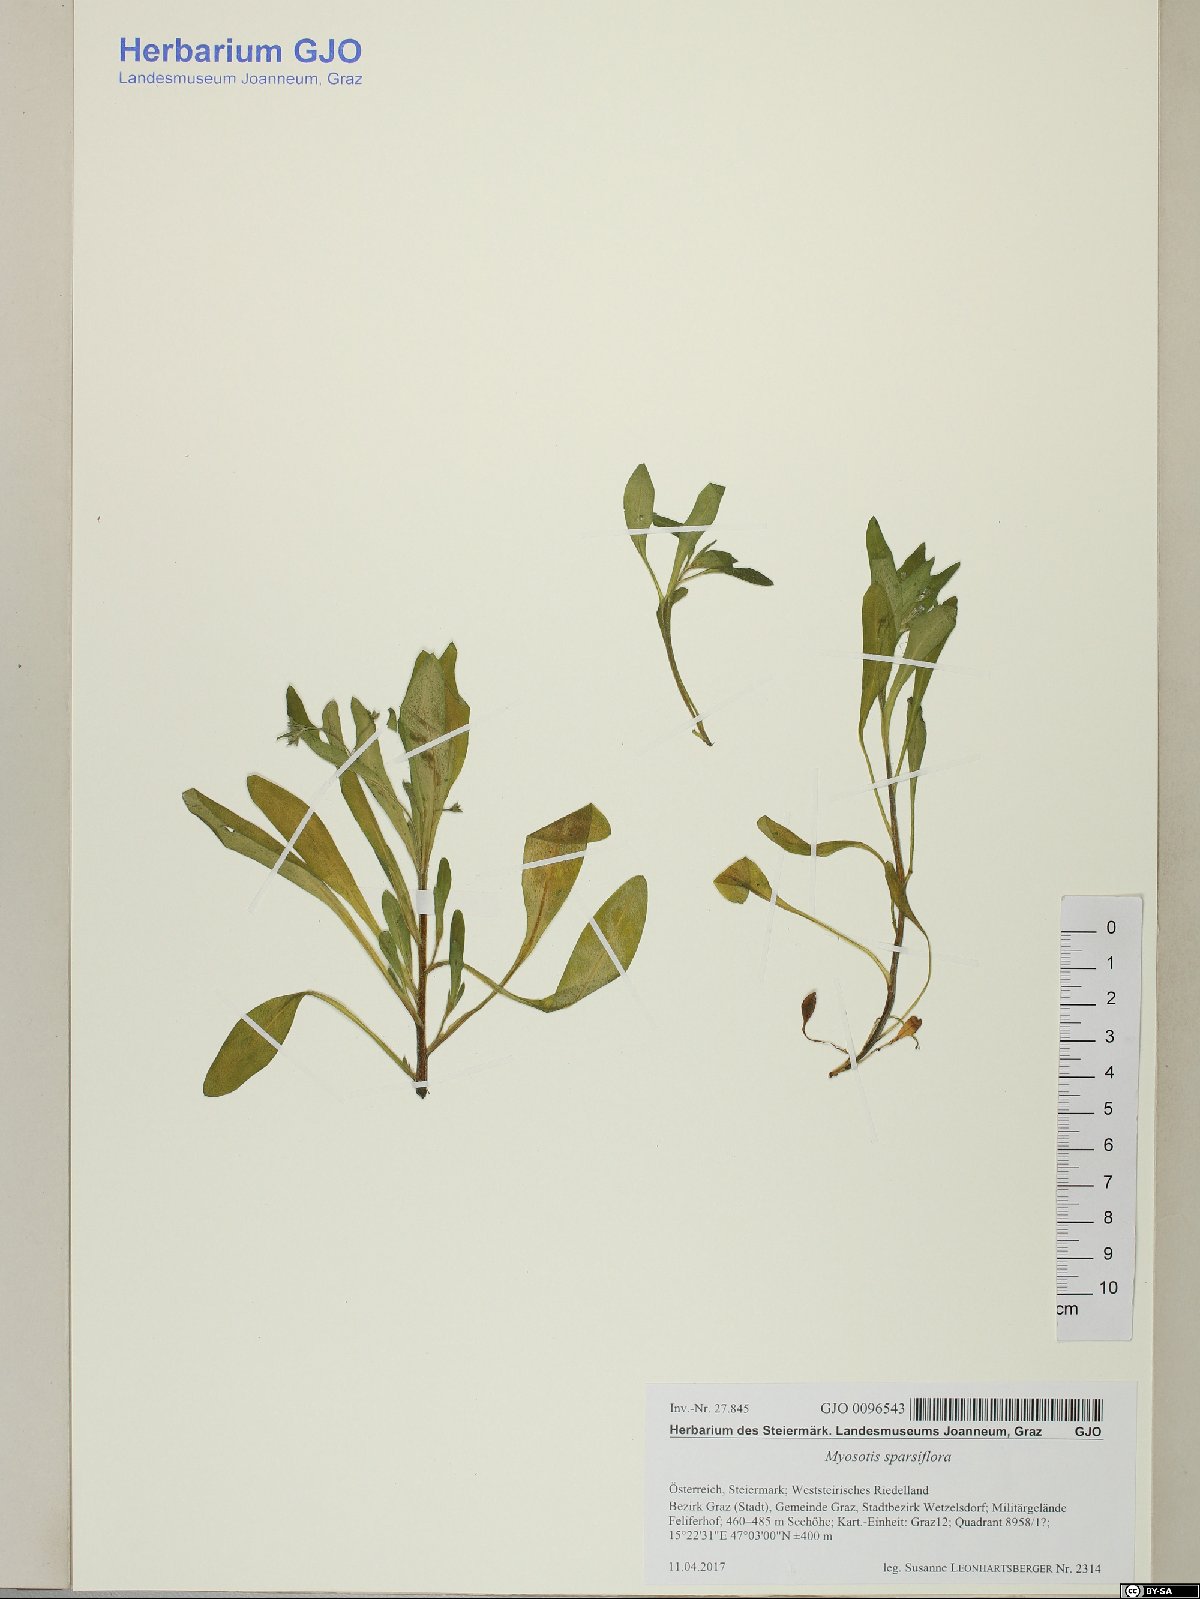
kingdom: Plantae
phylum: Tracheophyta
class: Magnoliopsida
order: Boraginales
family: Boraginaceae
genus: Myosotis
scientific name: Myosotis sparsiflora
